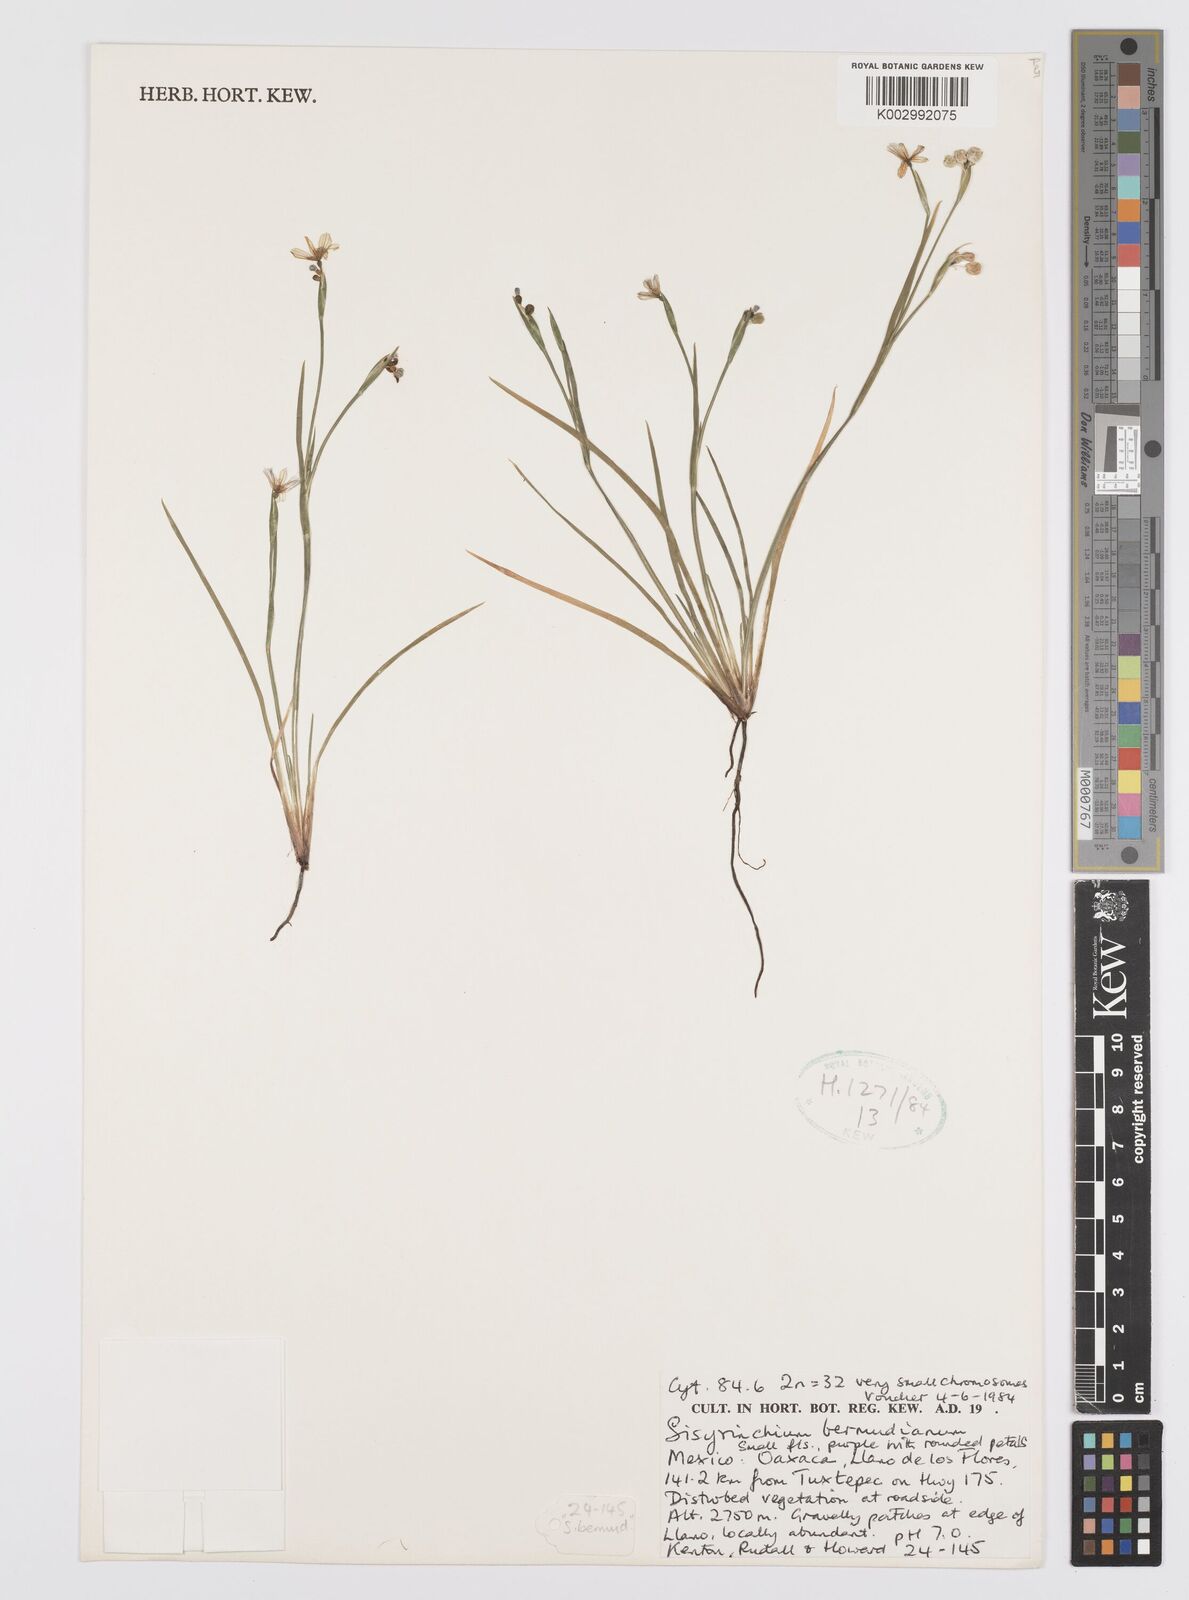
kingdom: Plantae
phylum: Tracheophyta
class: Liliopsida
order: Asparagales
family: Iridaceae
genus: Sisyrinchium
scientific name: Sisyrinchium bermudiana
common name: Blue-eyed-grass
